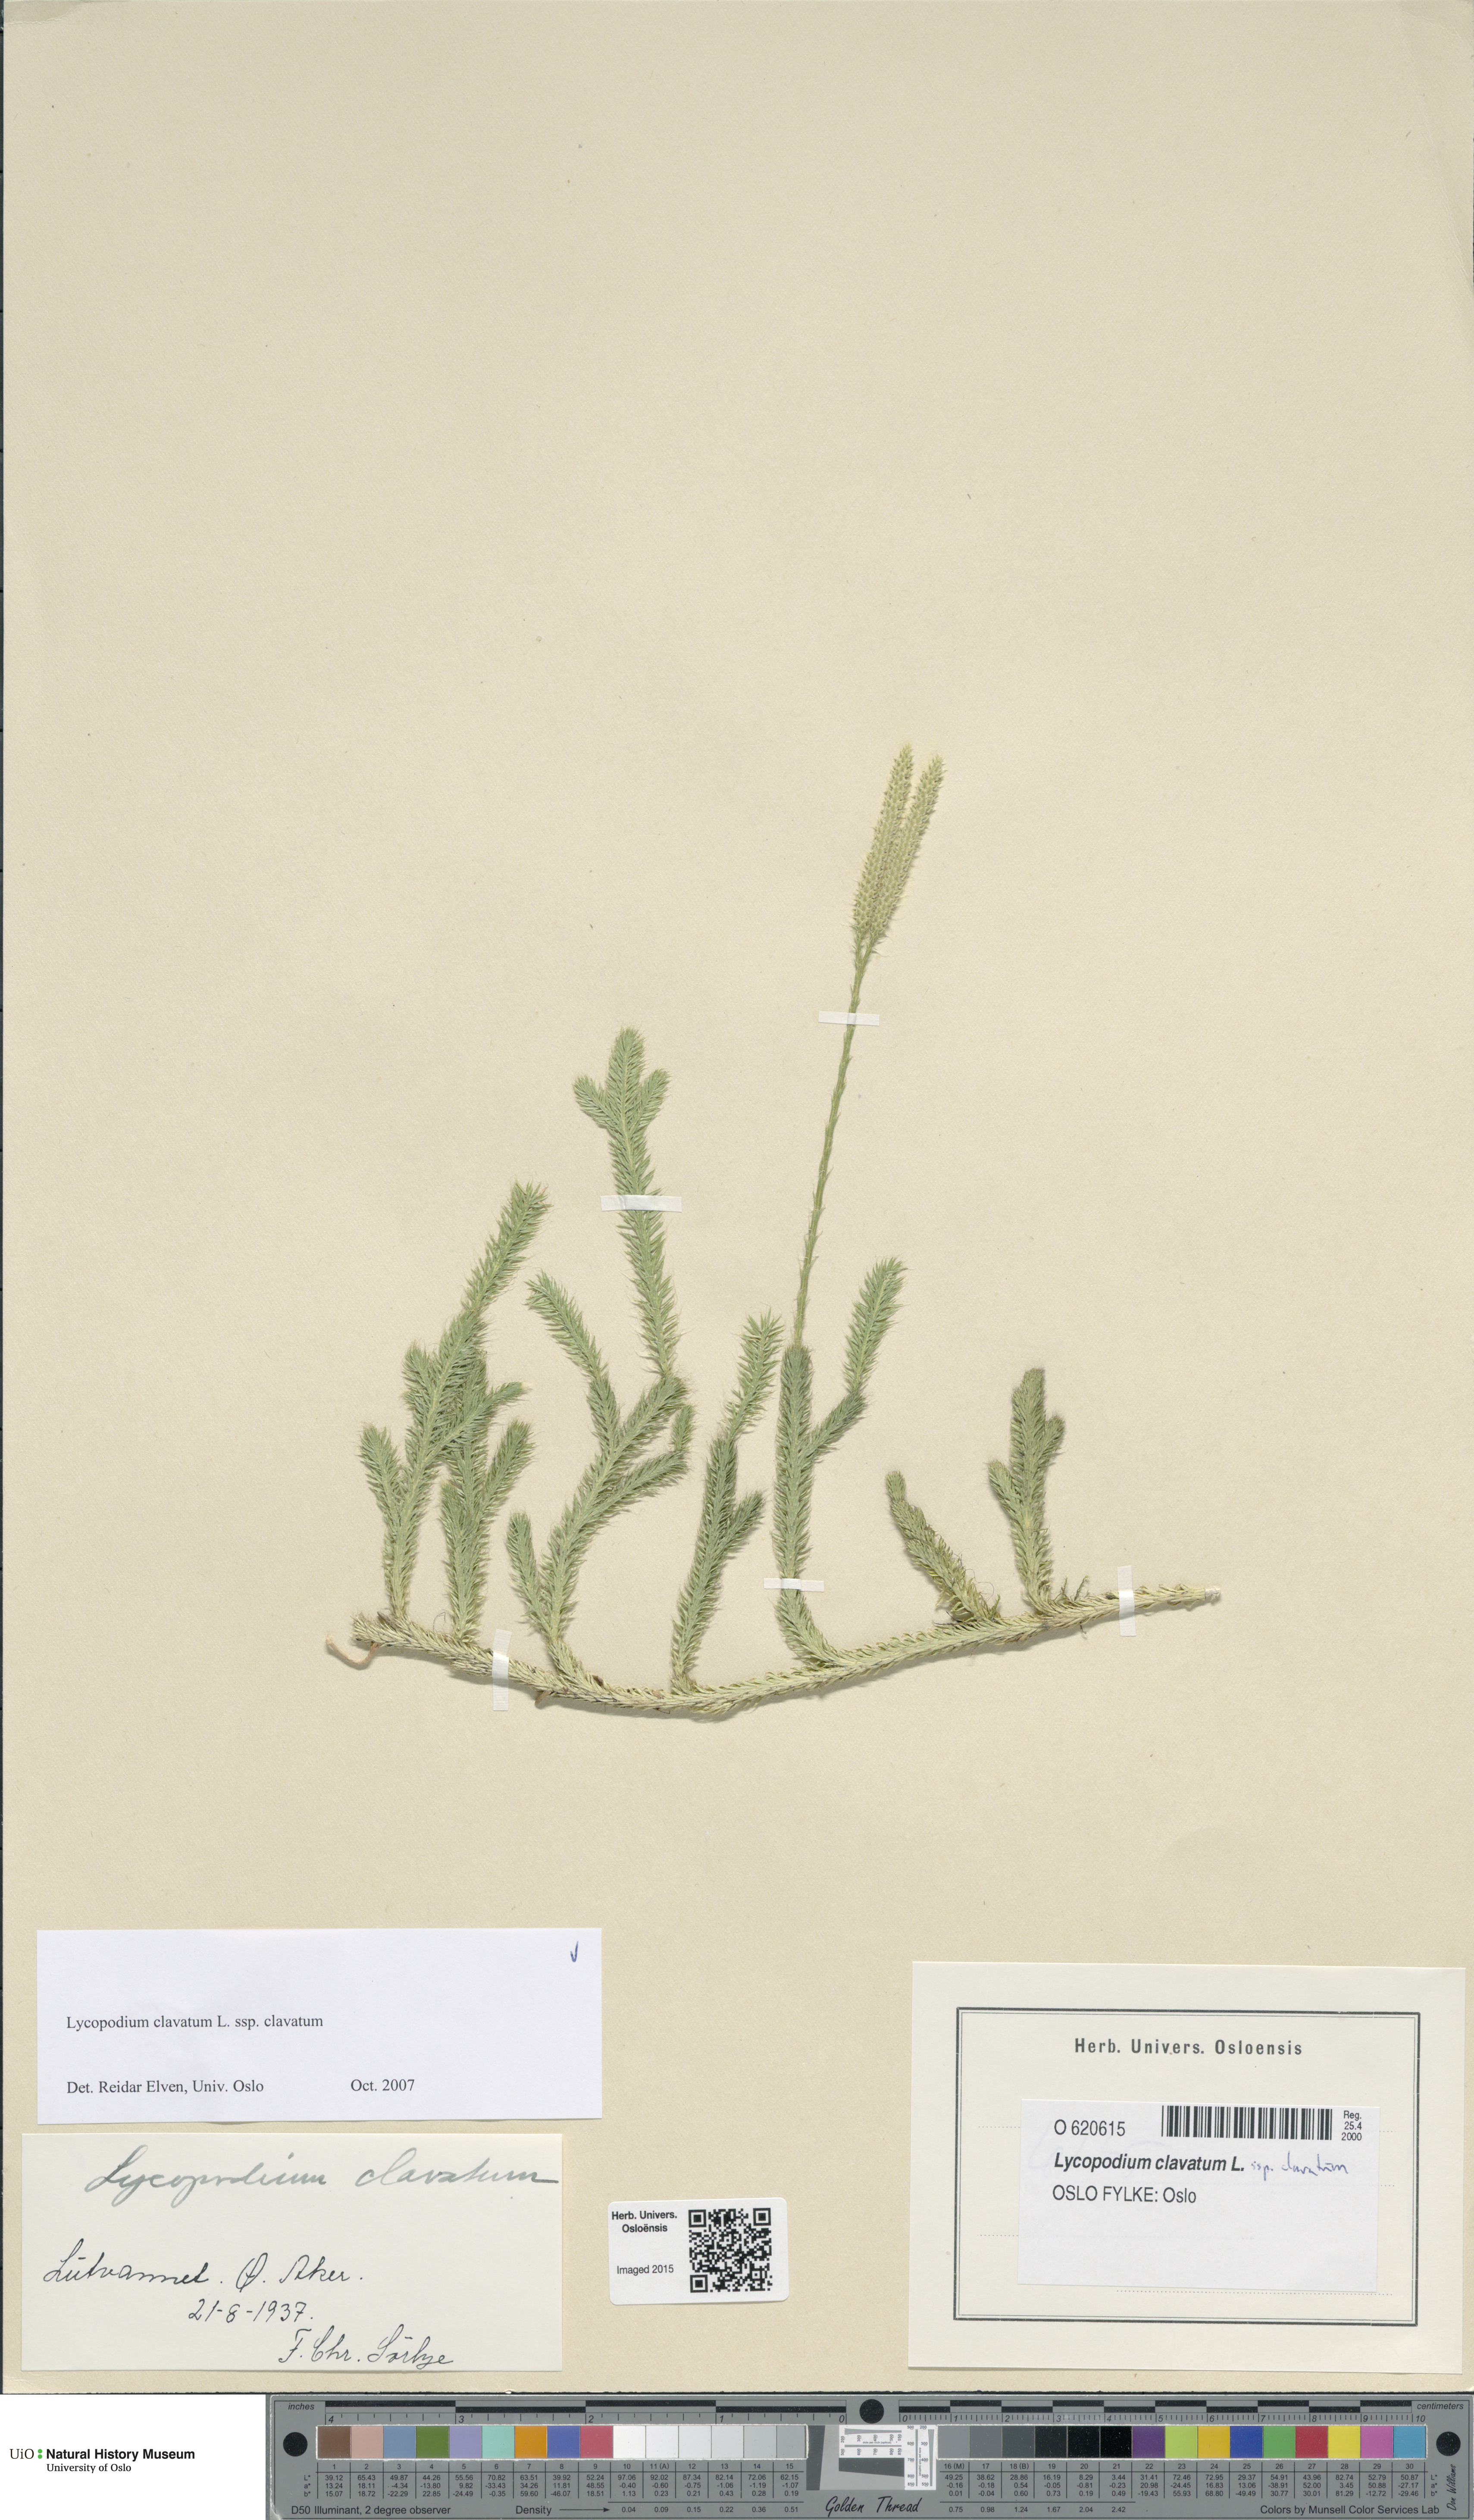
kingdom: Plantae
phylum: Tracheophyta
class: Lycopodiopsida
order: Lycopodiales
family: Lycopodiaceae
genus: Lycopodium
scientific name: Lycopodium clavatum
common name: Stag's-horn clubmoss
